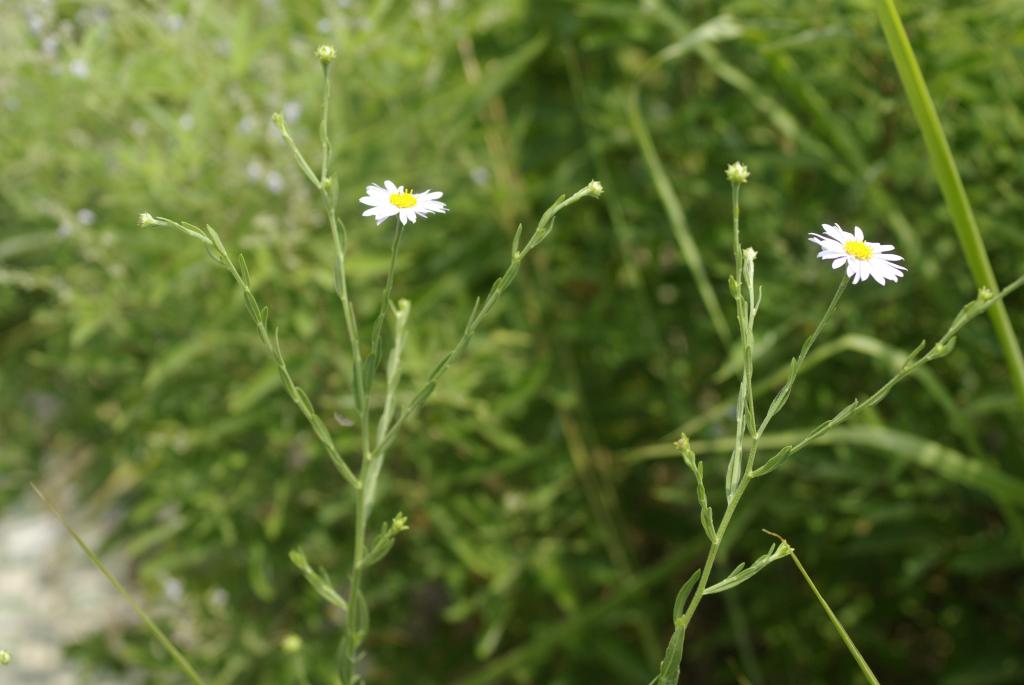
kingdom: Plantae
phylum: Tracheophyta
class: Magnoliopsida
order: Asterales
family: Asteraceae
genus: Aster
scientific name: Aster shimadae
